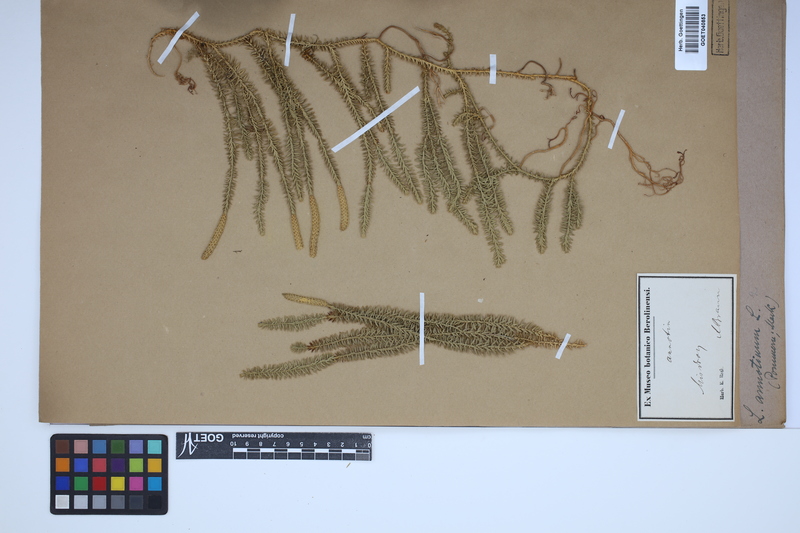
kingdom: Plantae
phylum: Tracheophyta
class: Lycopodiopsida
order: Lycopodiales
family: Lycopodiaceae
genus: Spinulum
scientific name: Spinulum annotinum
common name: Interrupted club-moss
